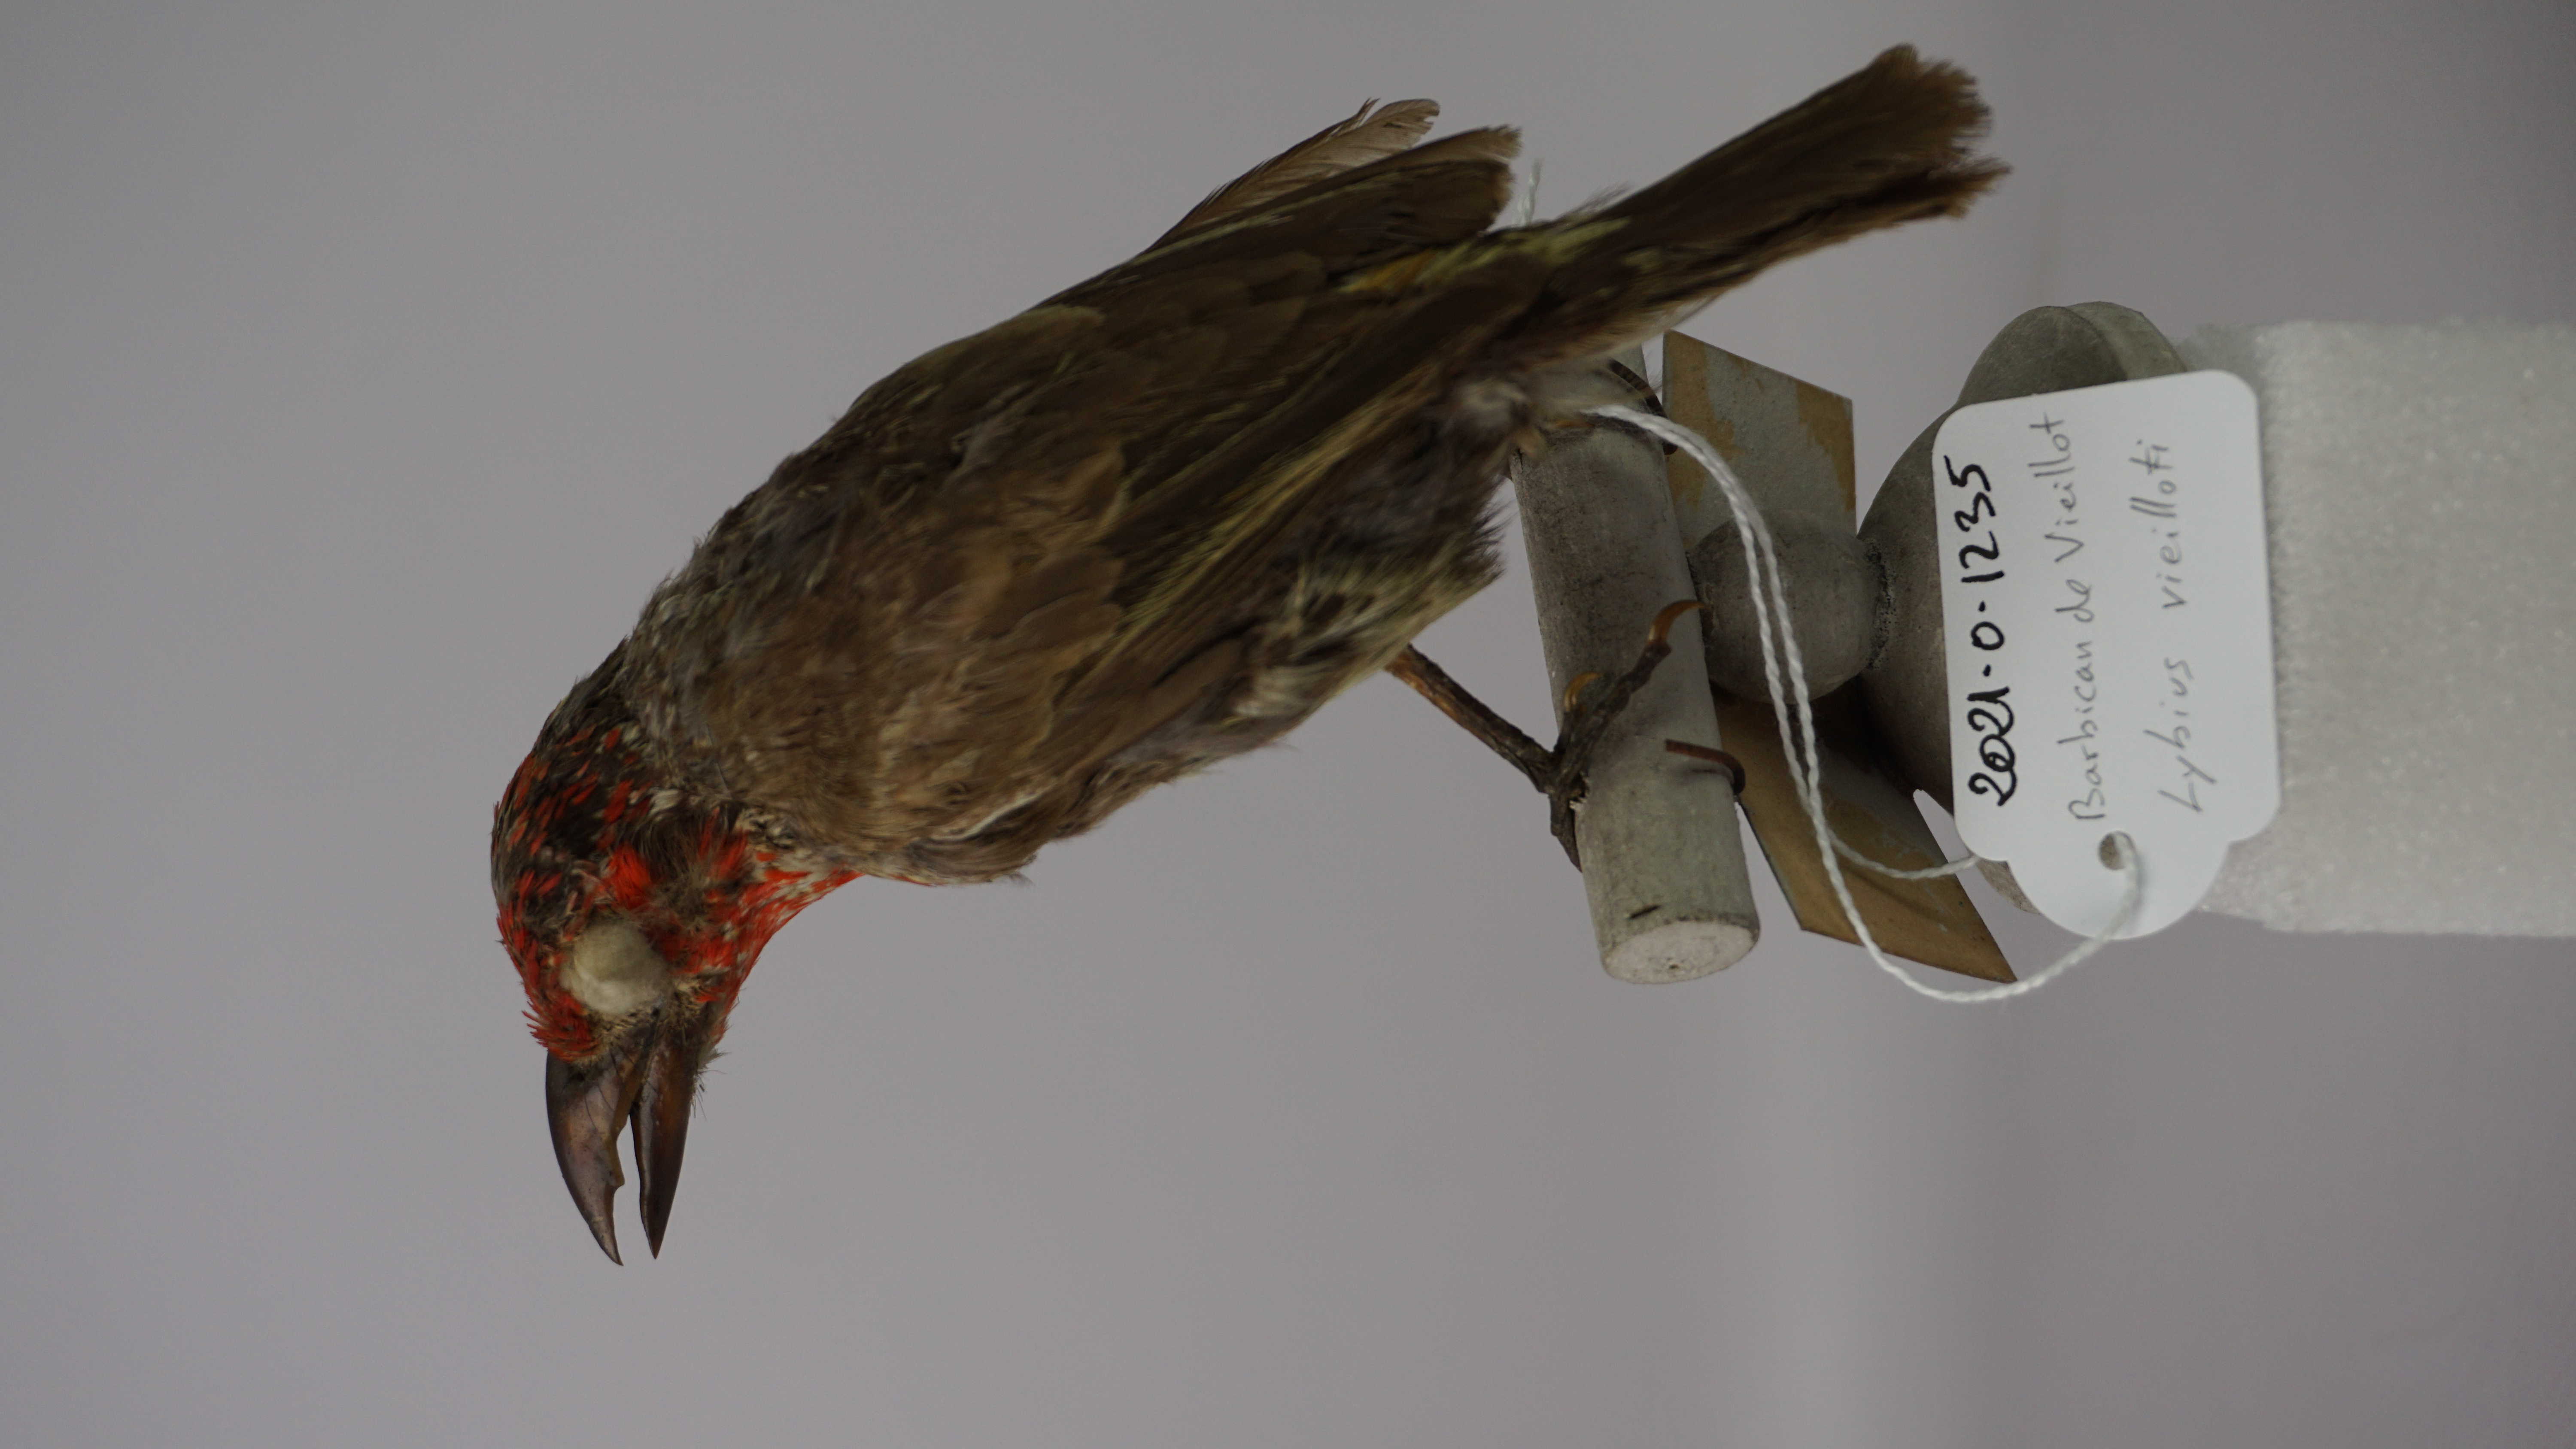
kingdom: Animalia
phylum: Chordata
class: Aves
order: Piciformes
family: Lybiidae
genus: Lybius
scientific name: Lybius vieilloti
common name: Vieillot's barbet
